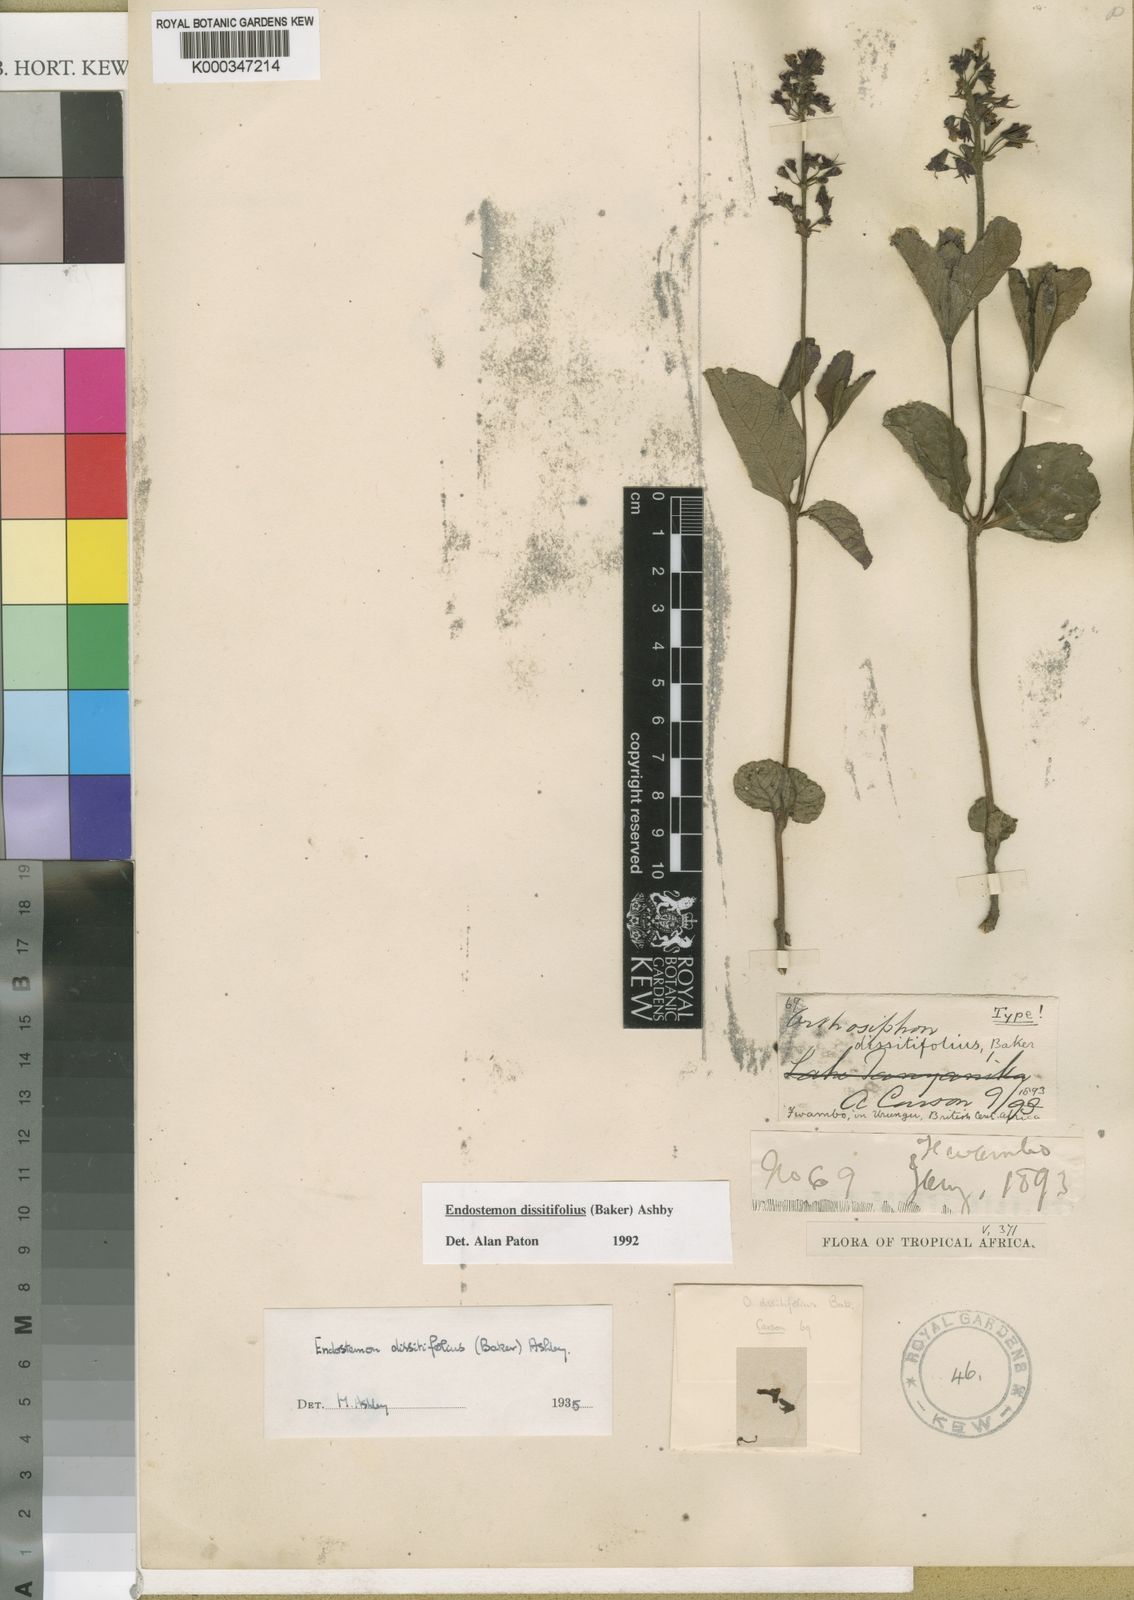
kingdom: Plantae
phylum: Tracheophyta
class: Magnoliopsida
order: Lamiales
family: Lamiaceae
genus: Endostemon
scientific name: Endostemon villosus
